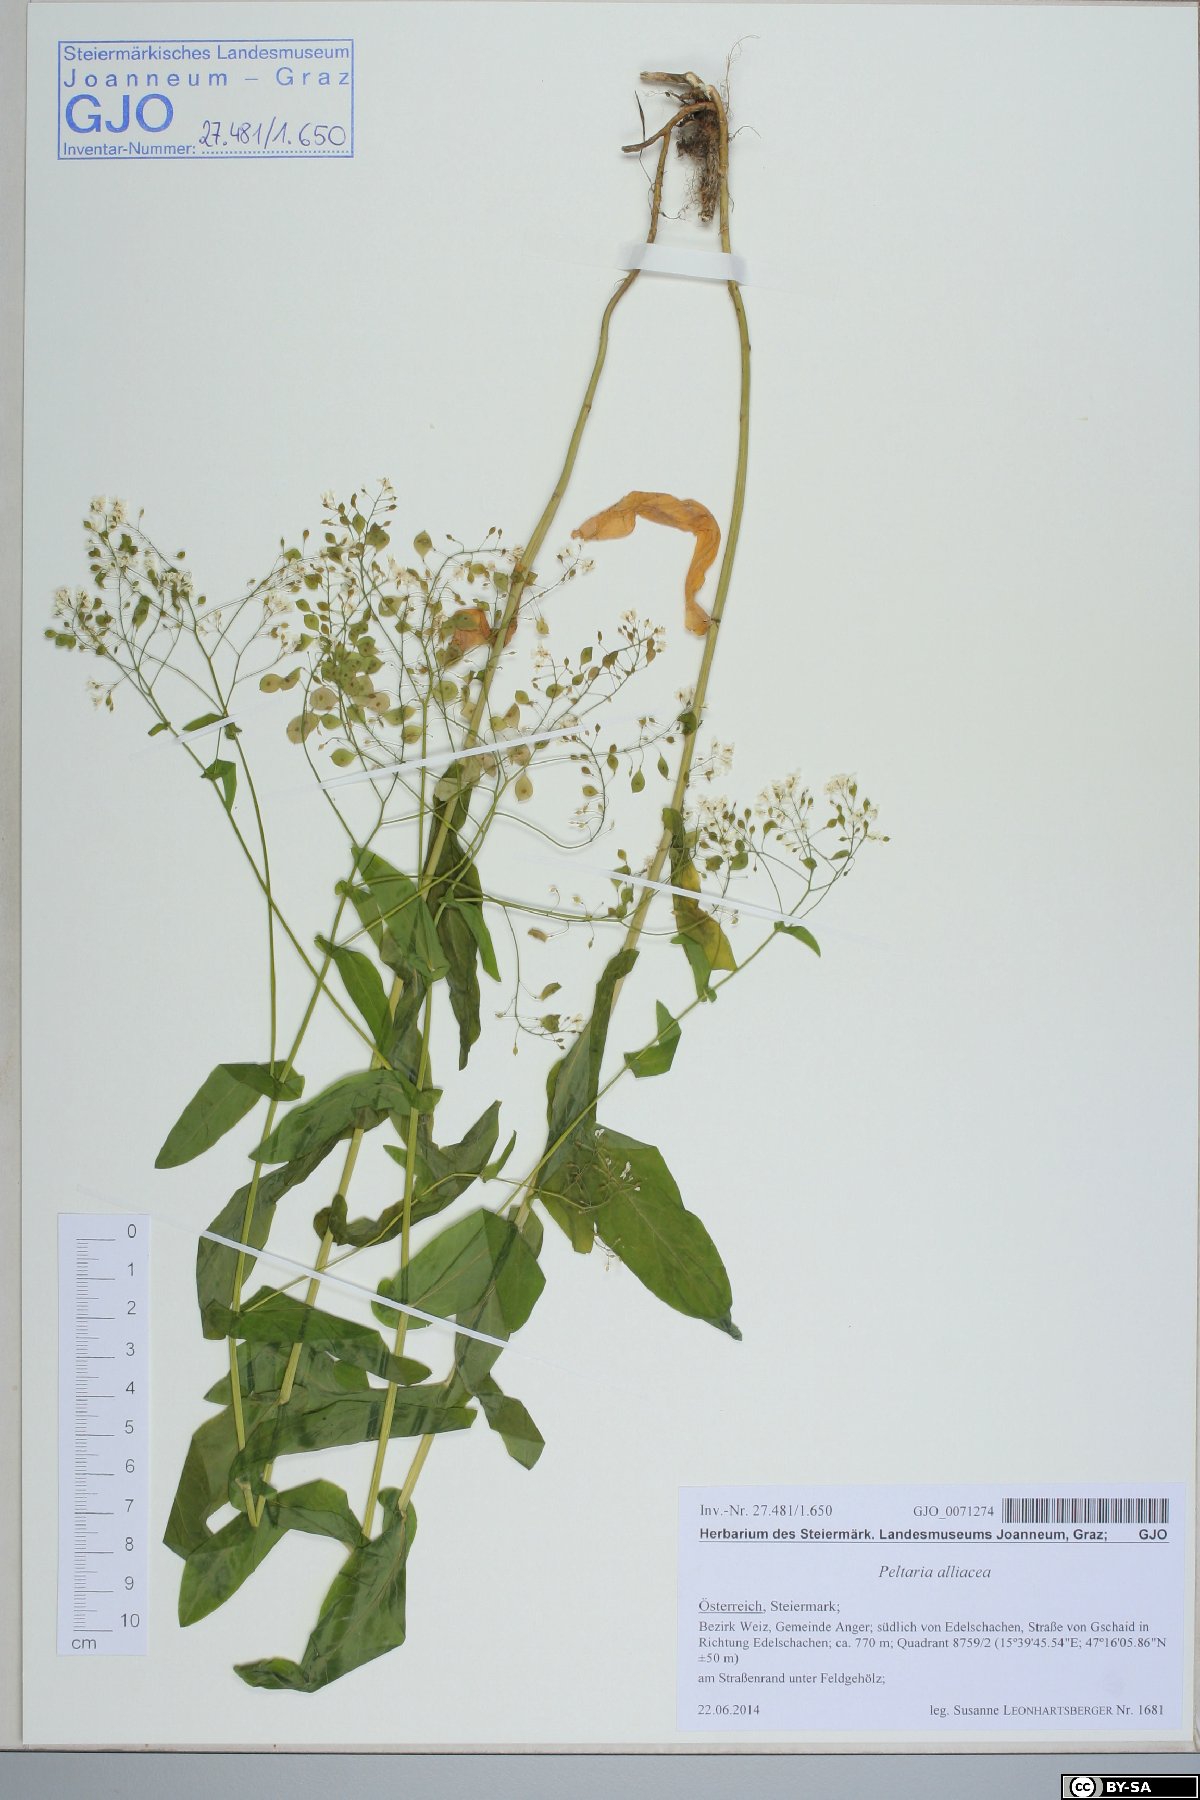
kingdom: Plantae
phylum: Tracheophyta
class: Magnoliopsida
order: Brassicales
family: Brassicaceae
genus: Peltaria
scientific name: Peltaria alliacea
